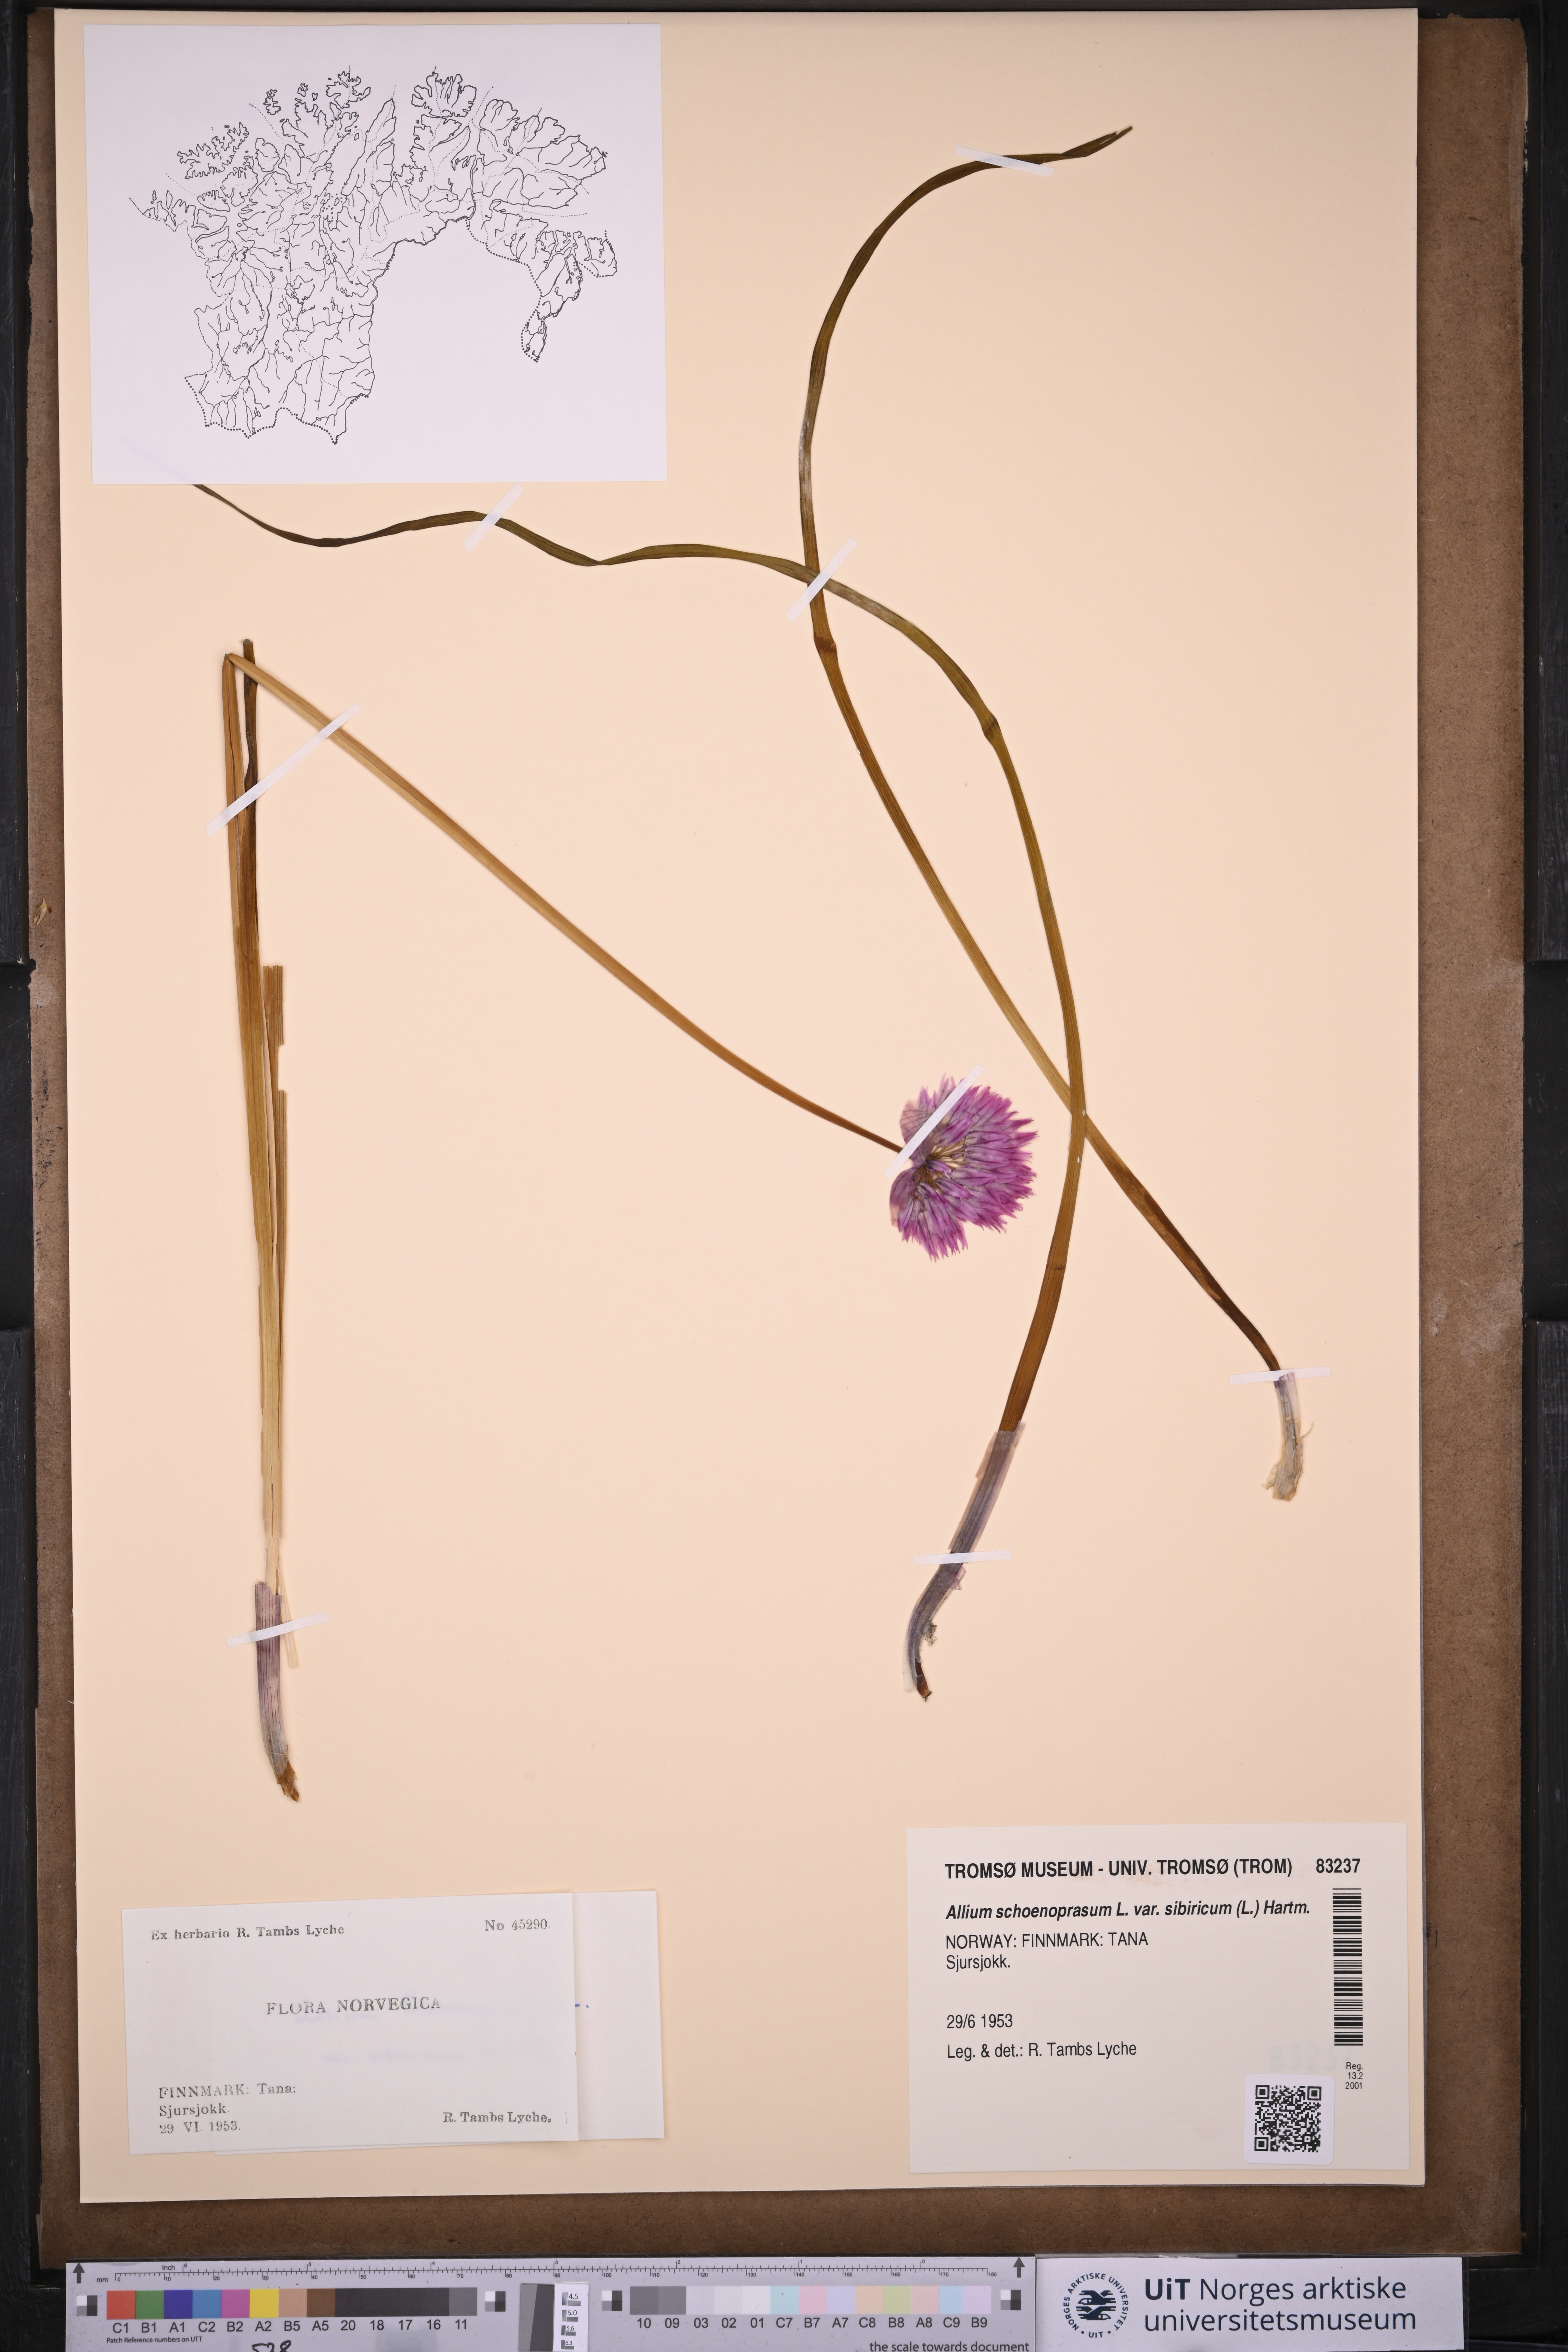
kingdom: Plantae
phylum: Tracheophyta
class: Liliopsida
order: Asparagales
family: Amaryllidaceae
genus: Allium
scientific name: Allium schoenoprasum
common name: Chives
